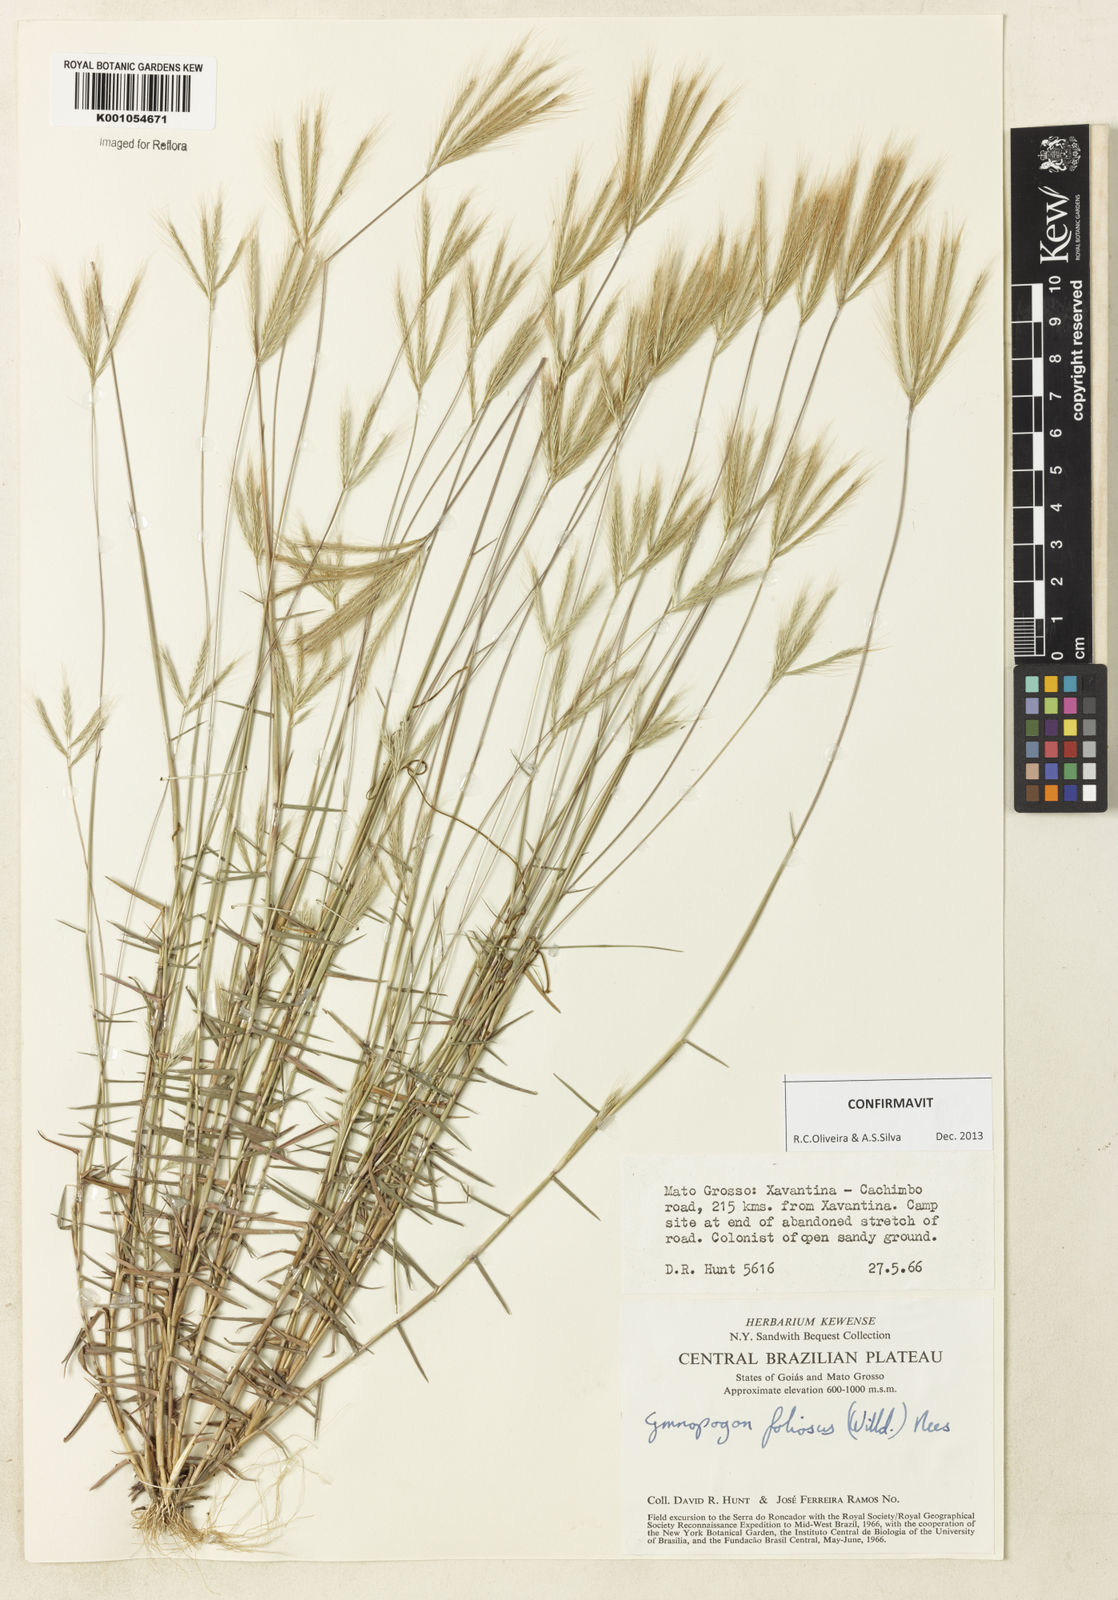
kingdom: Plantae
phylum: Tracheophyta
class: Liliopsida
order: Poales
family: Poaceae
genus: Gymnopogon
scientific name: Gymnopogon foliosus
